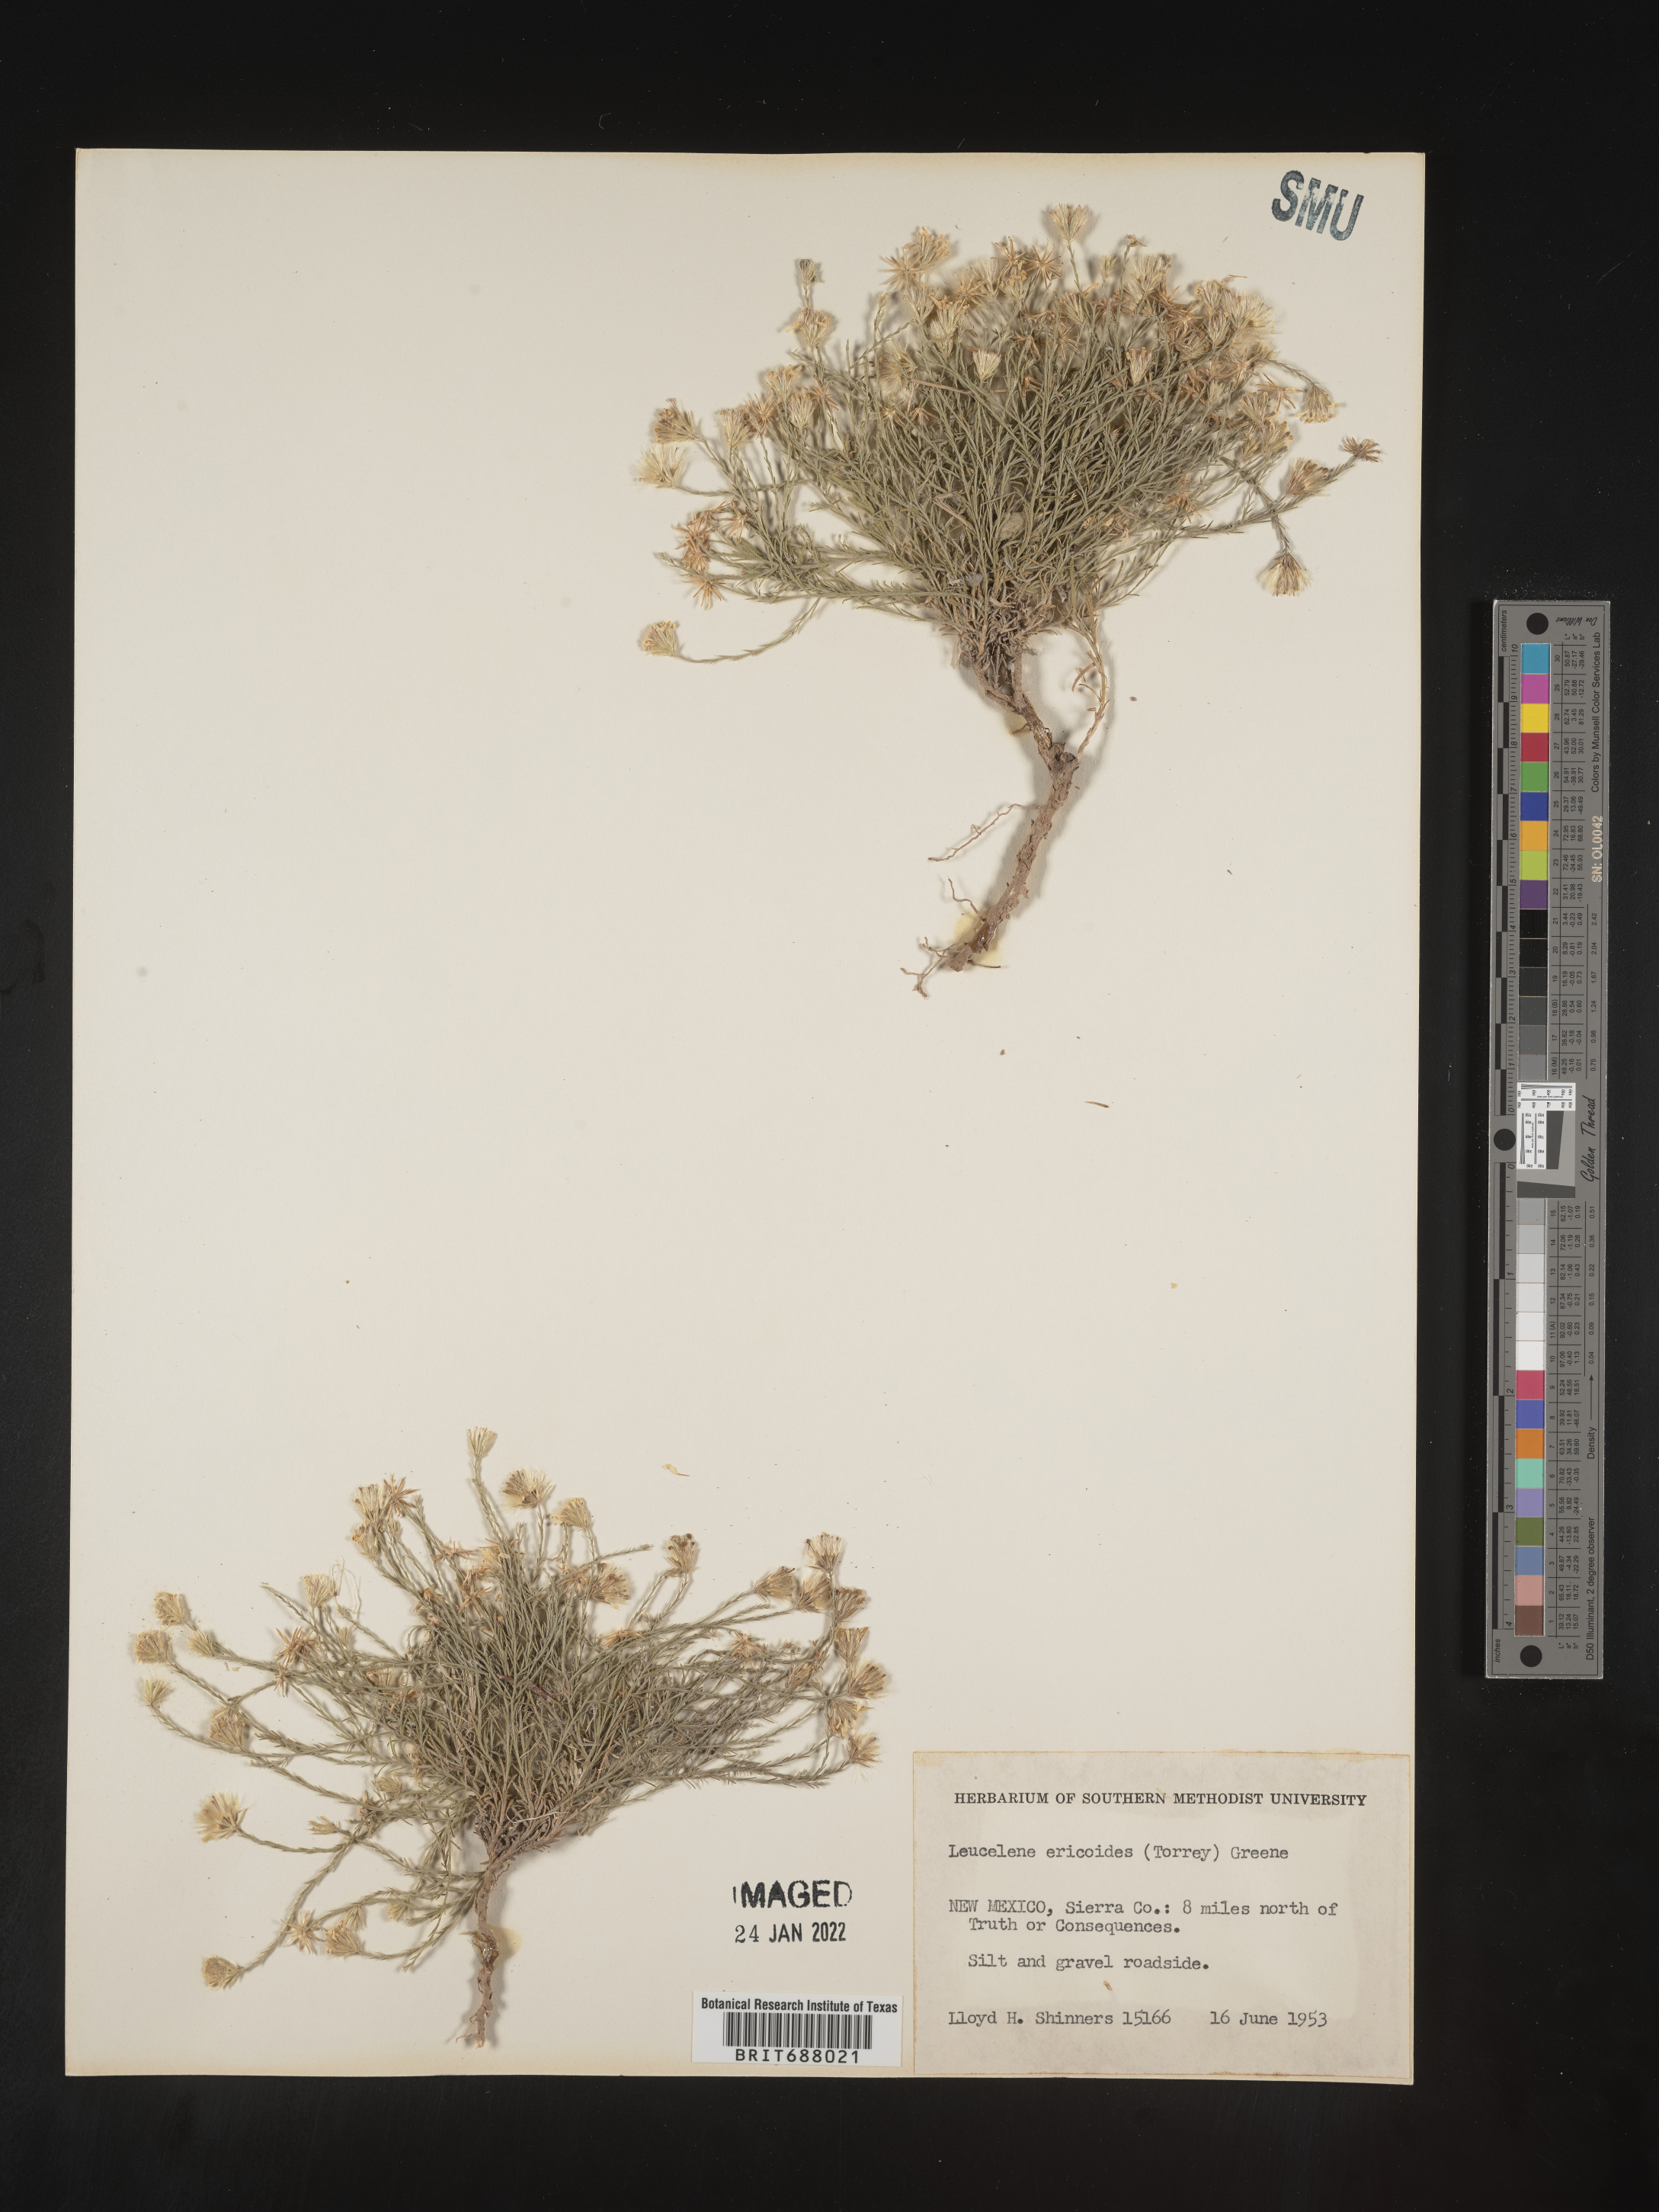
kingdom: Plantae
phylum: Tracheophyta
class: Magnoliopsida
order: Asterales
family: Asteraceae
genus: Chaetopappa
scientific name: Chaetopappa ericoides
